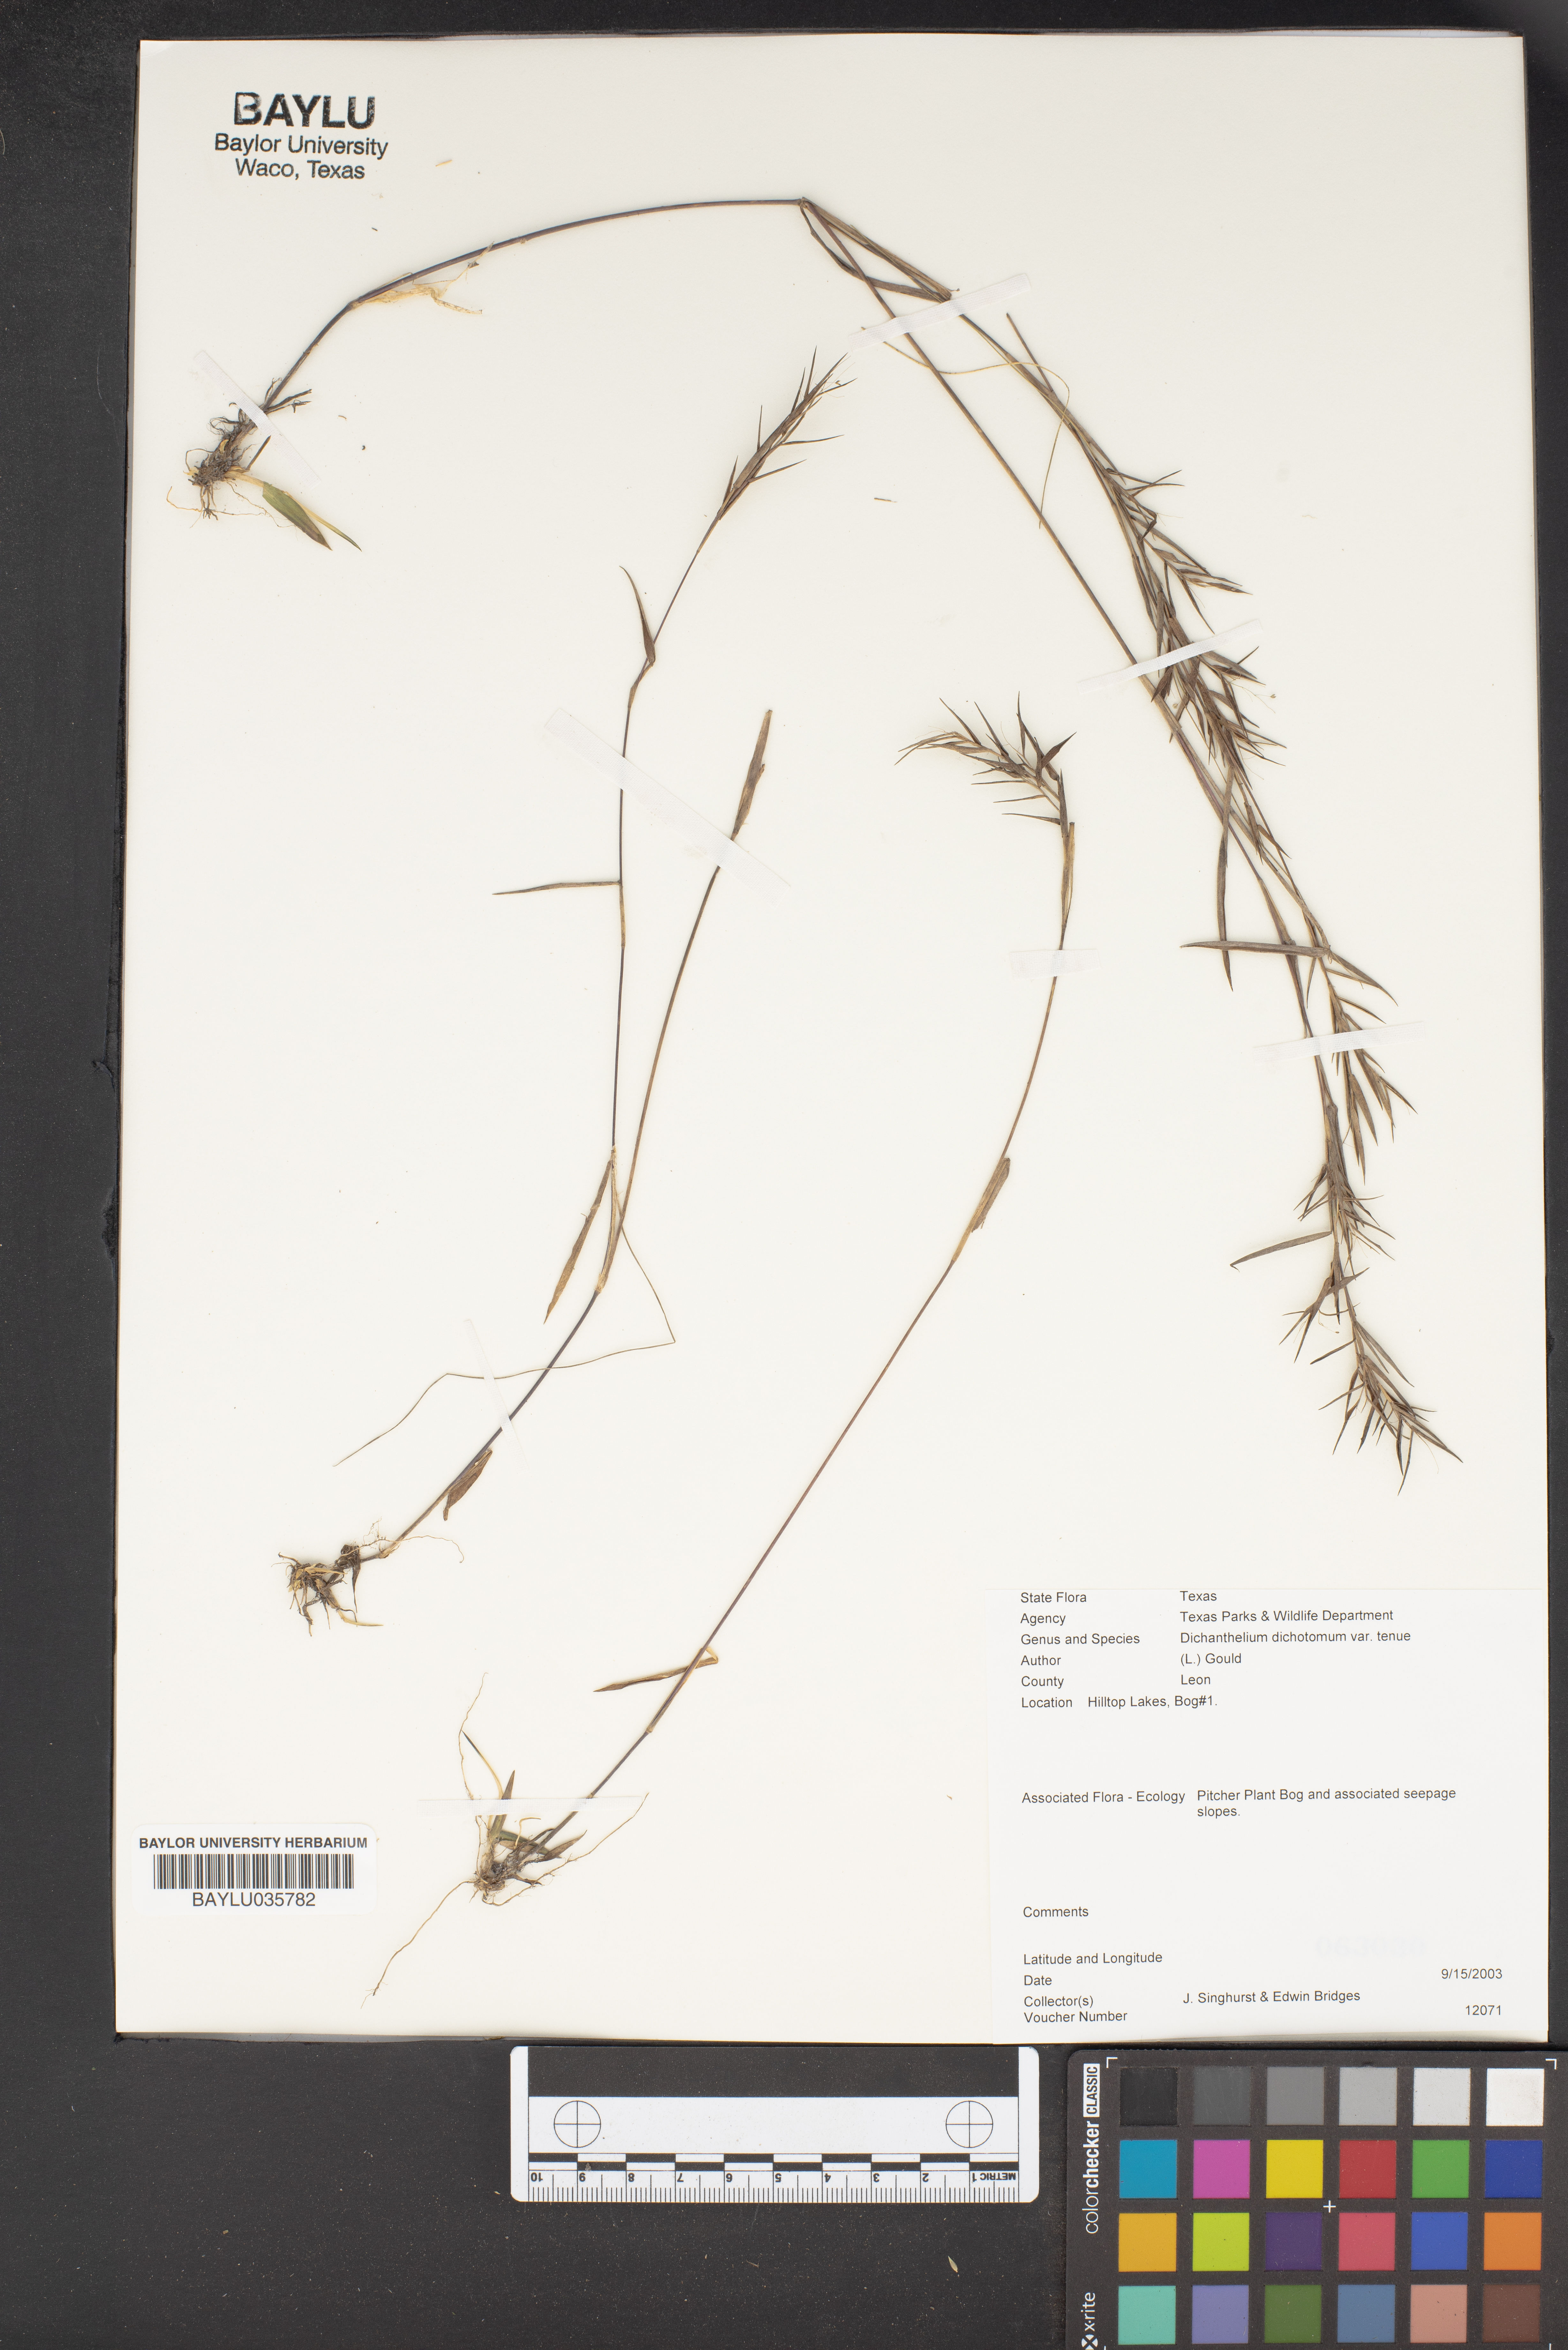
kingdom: Plantae
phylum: Tracheophyta
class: Liliopsida
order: Poales
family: Poaceae
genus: Dichanthelium
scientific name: Dichanthelium tenue
